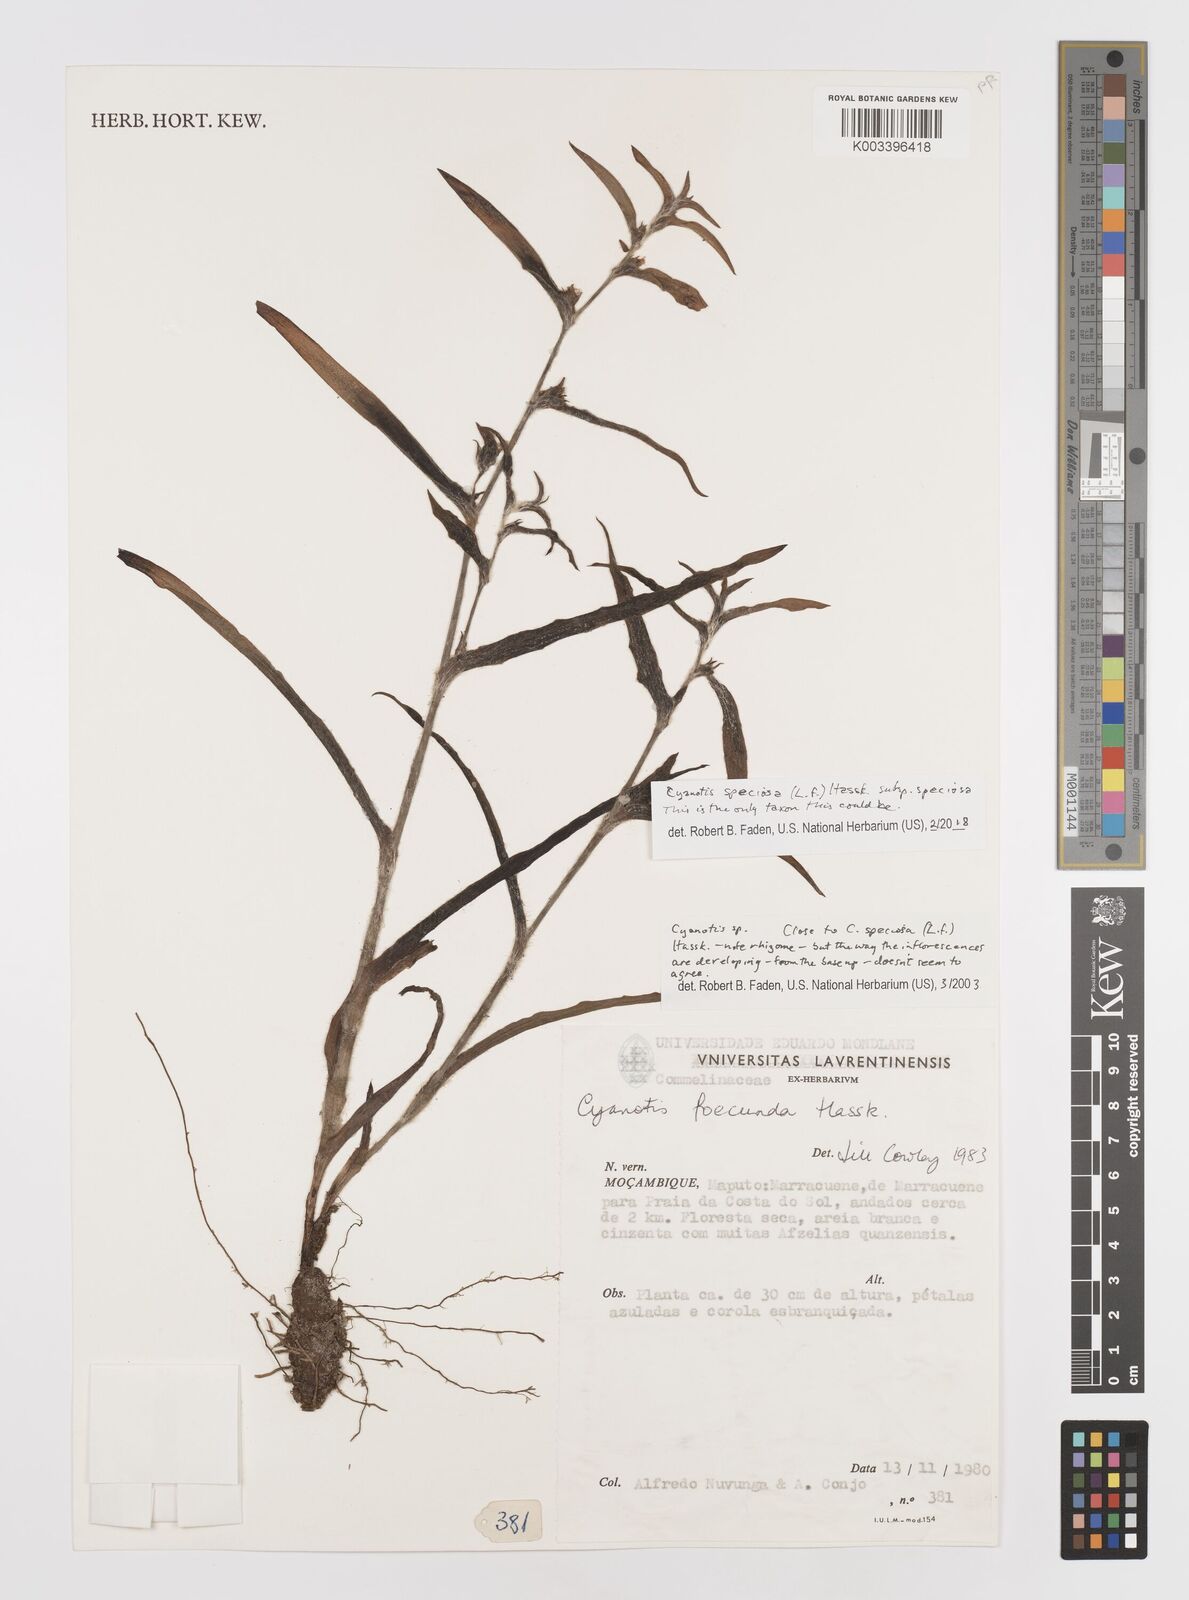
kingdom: Plantae
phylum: Tracheophyta
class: Liliopsida
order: Commelinales
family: Commelinaceae
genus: Cyanotis
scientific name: Cyanotis speciosa
